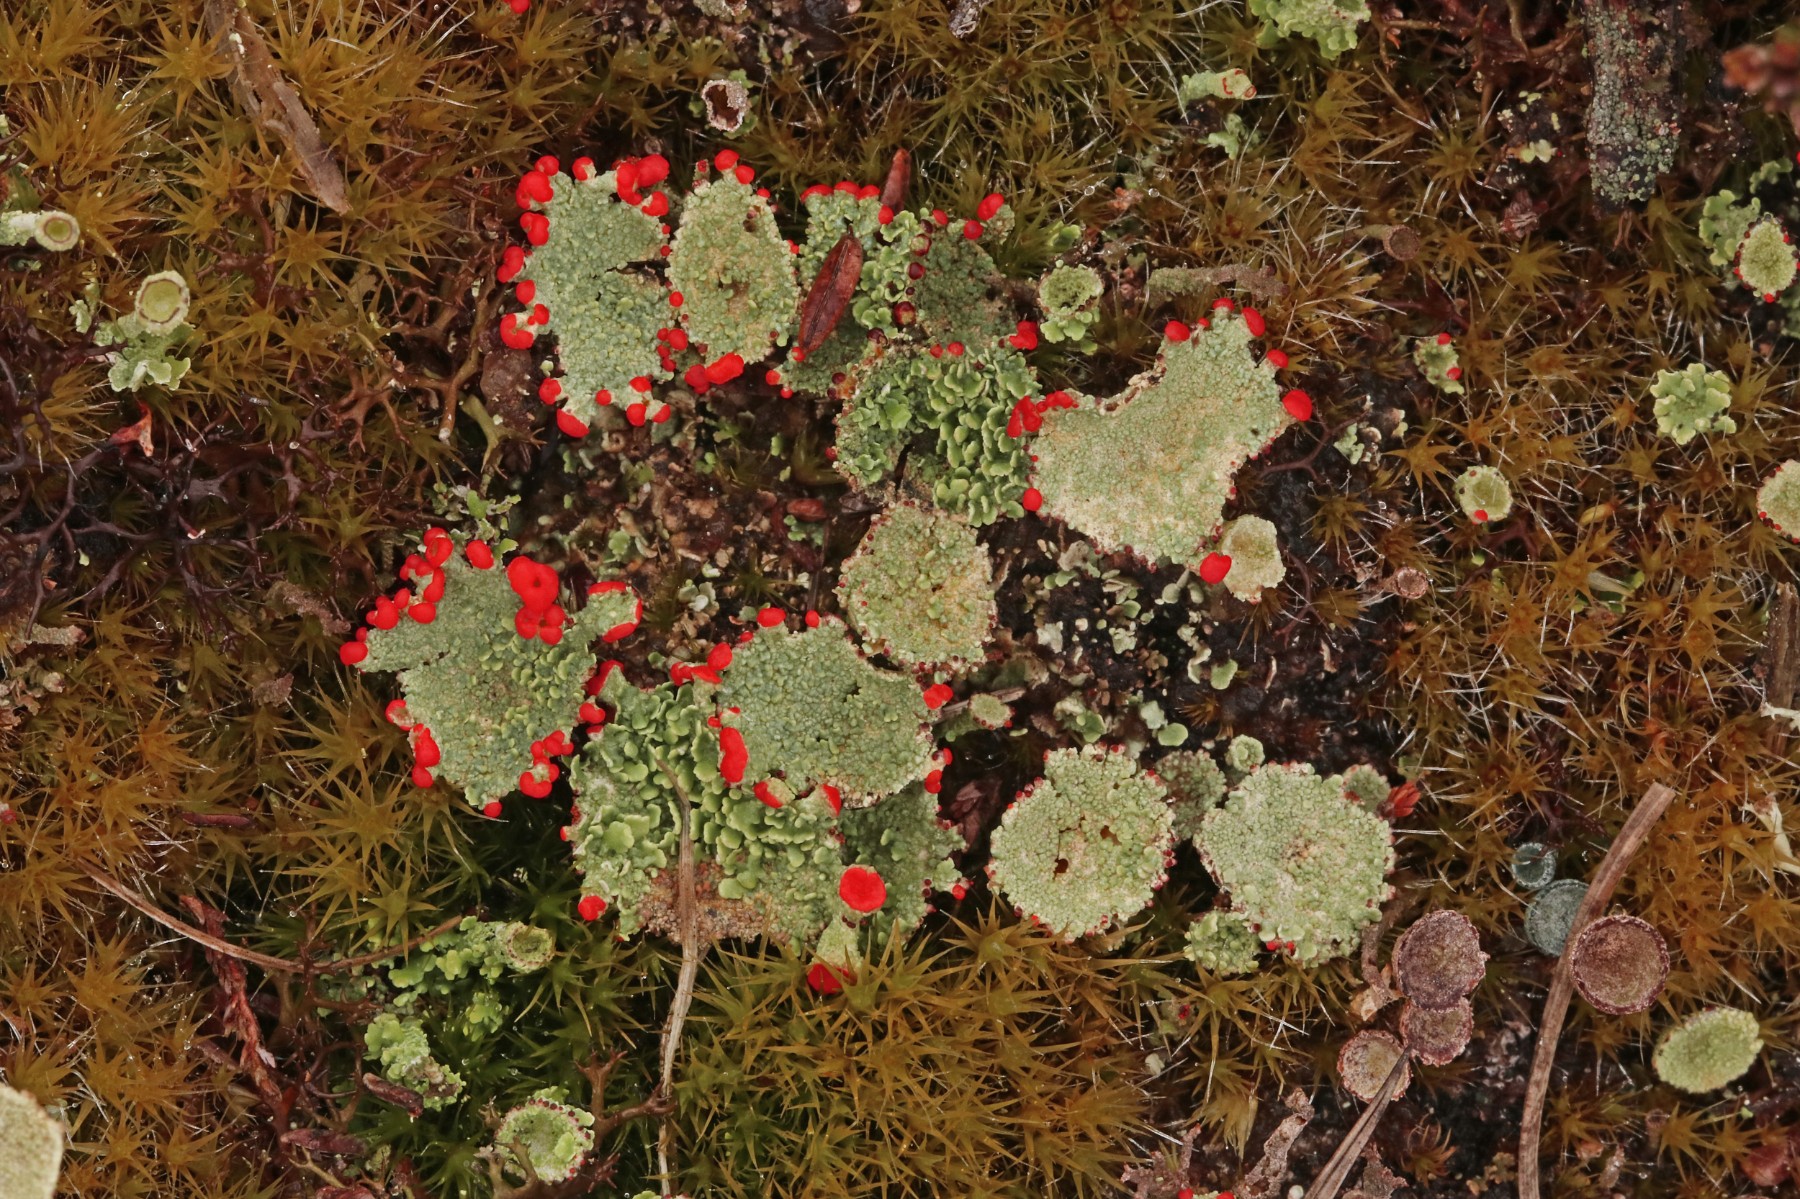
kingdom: Fungi
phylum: Ascomycota
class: Lecanoromycetes
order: Lecanorales
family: Cladoniaceae
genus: Cladonia
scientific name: Cladonia diversa
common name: rød bægerlav
